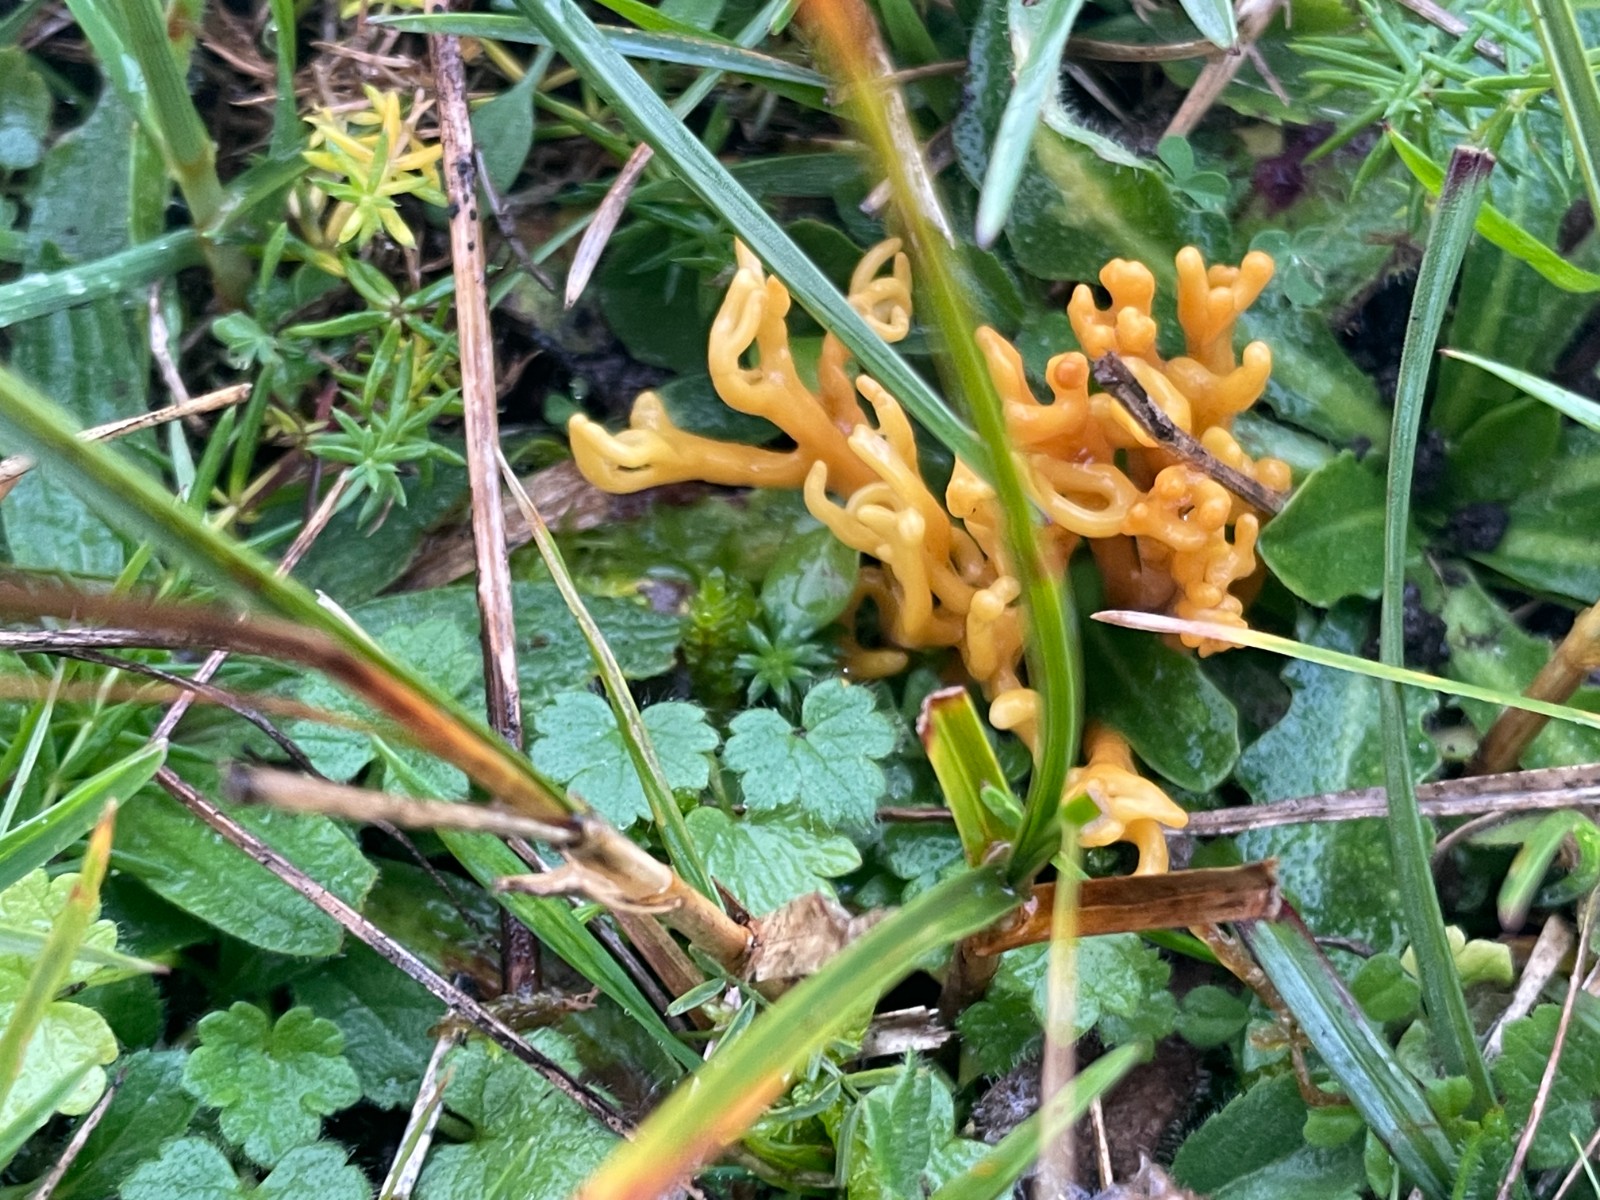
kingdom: Fungi
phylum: Basidiomycota
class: Agaricomycetes
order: Agaricales
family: Clavariaceae
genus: Clavulinopsis
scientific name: Clavulinopsis corniculata
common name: eng-køllesvamp
